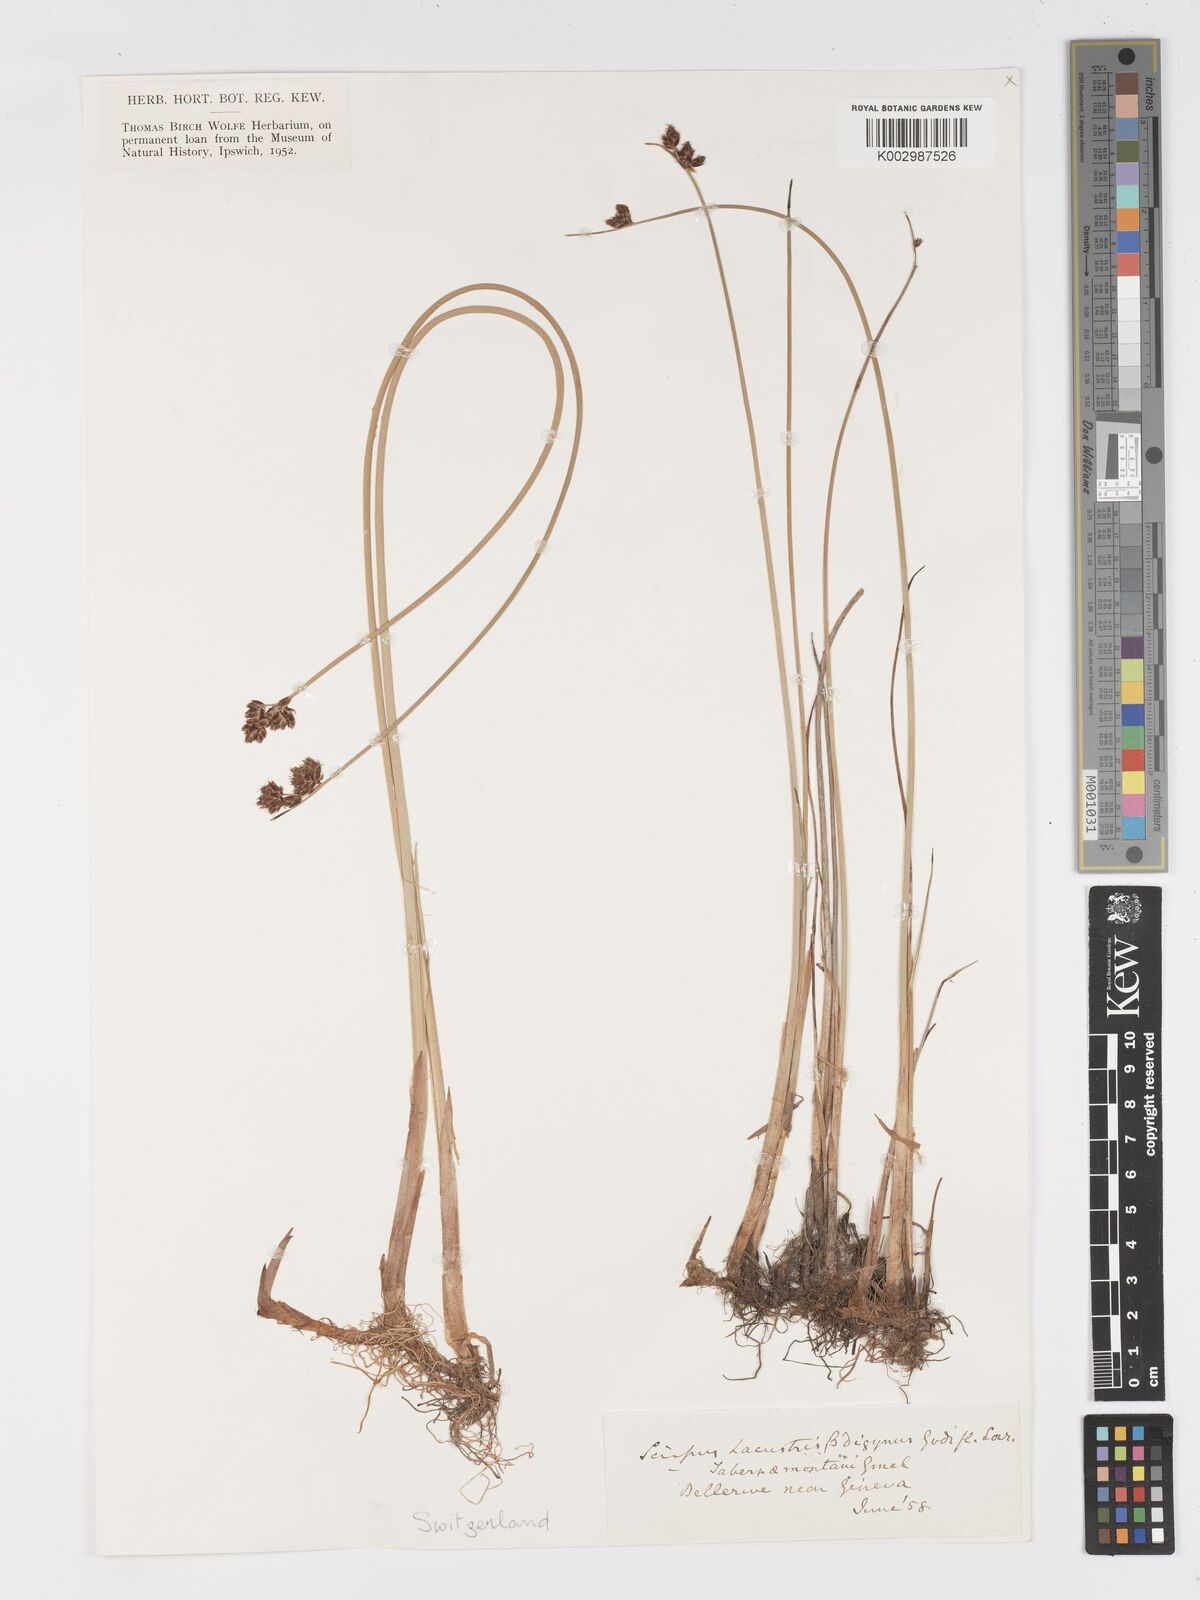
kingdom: Plantae
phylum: Tracheophyta
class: Liliopsida
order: Poales
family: Cyperaceae
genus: Schoenoplectus
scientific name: Schoenoplectus lacustris
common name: Common club-rush
